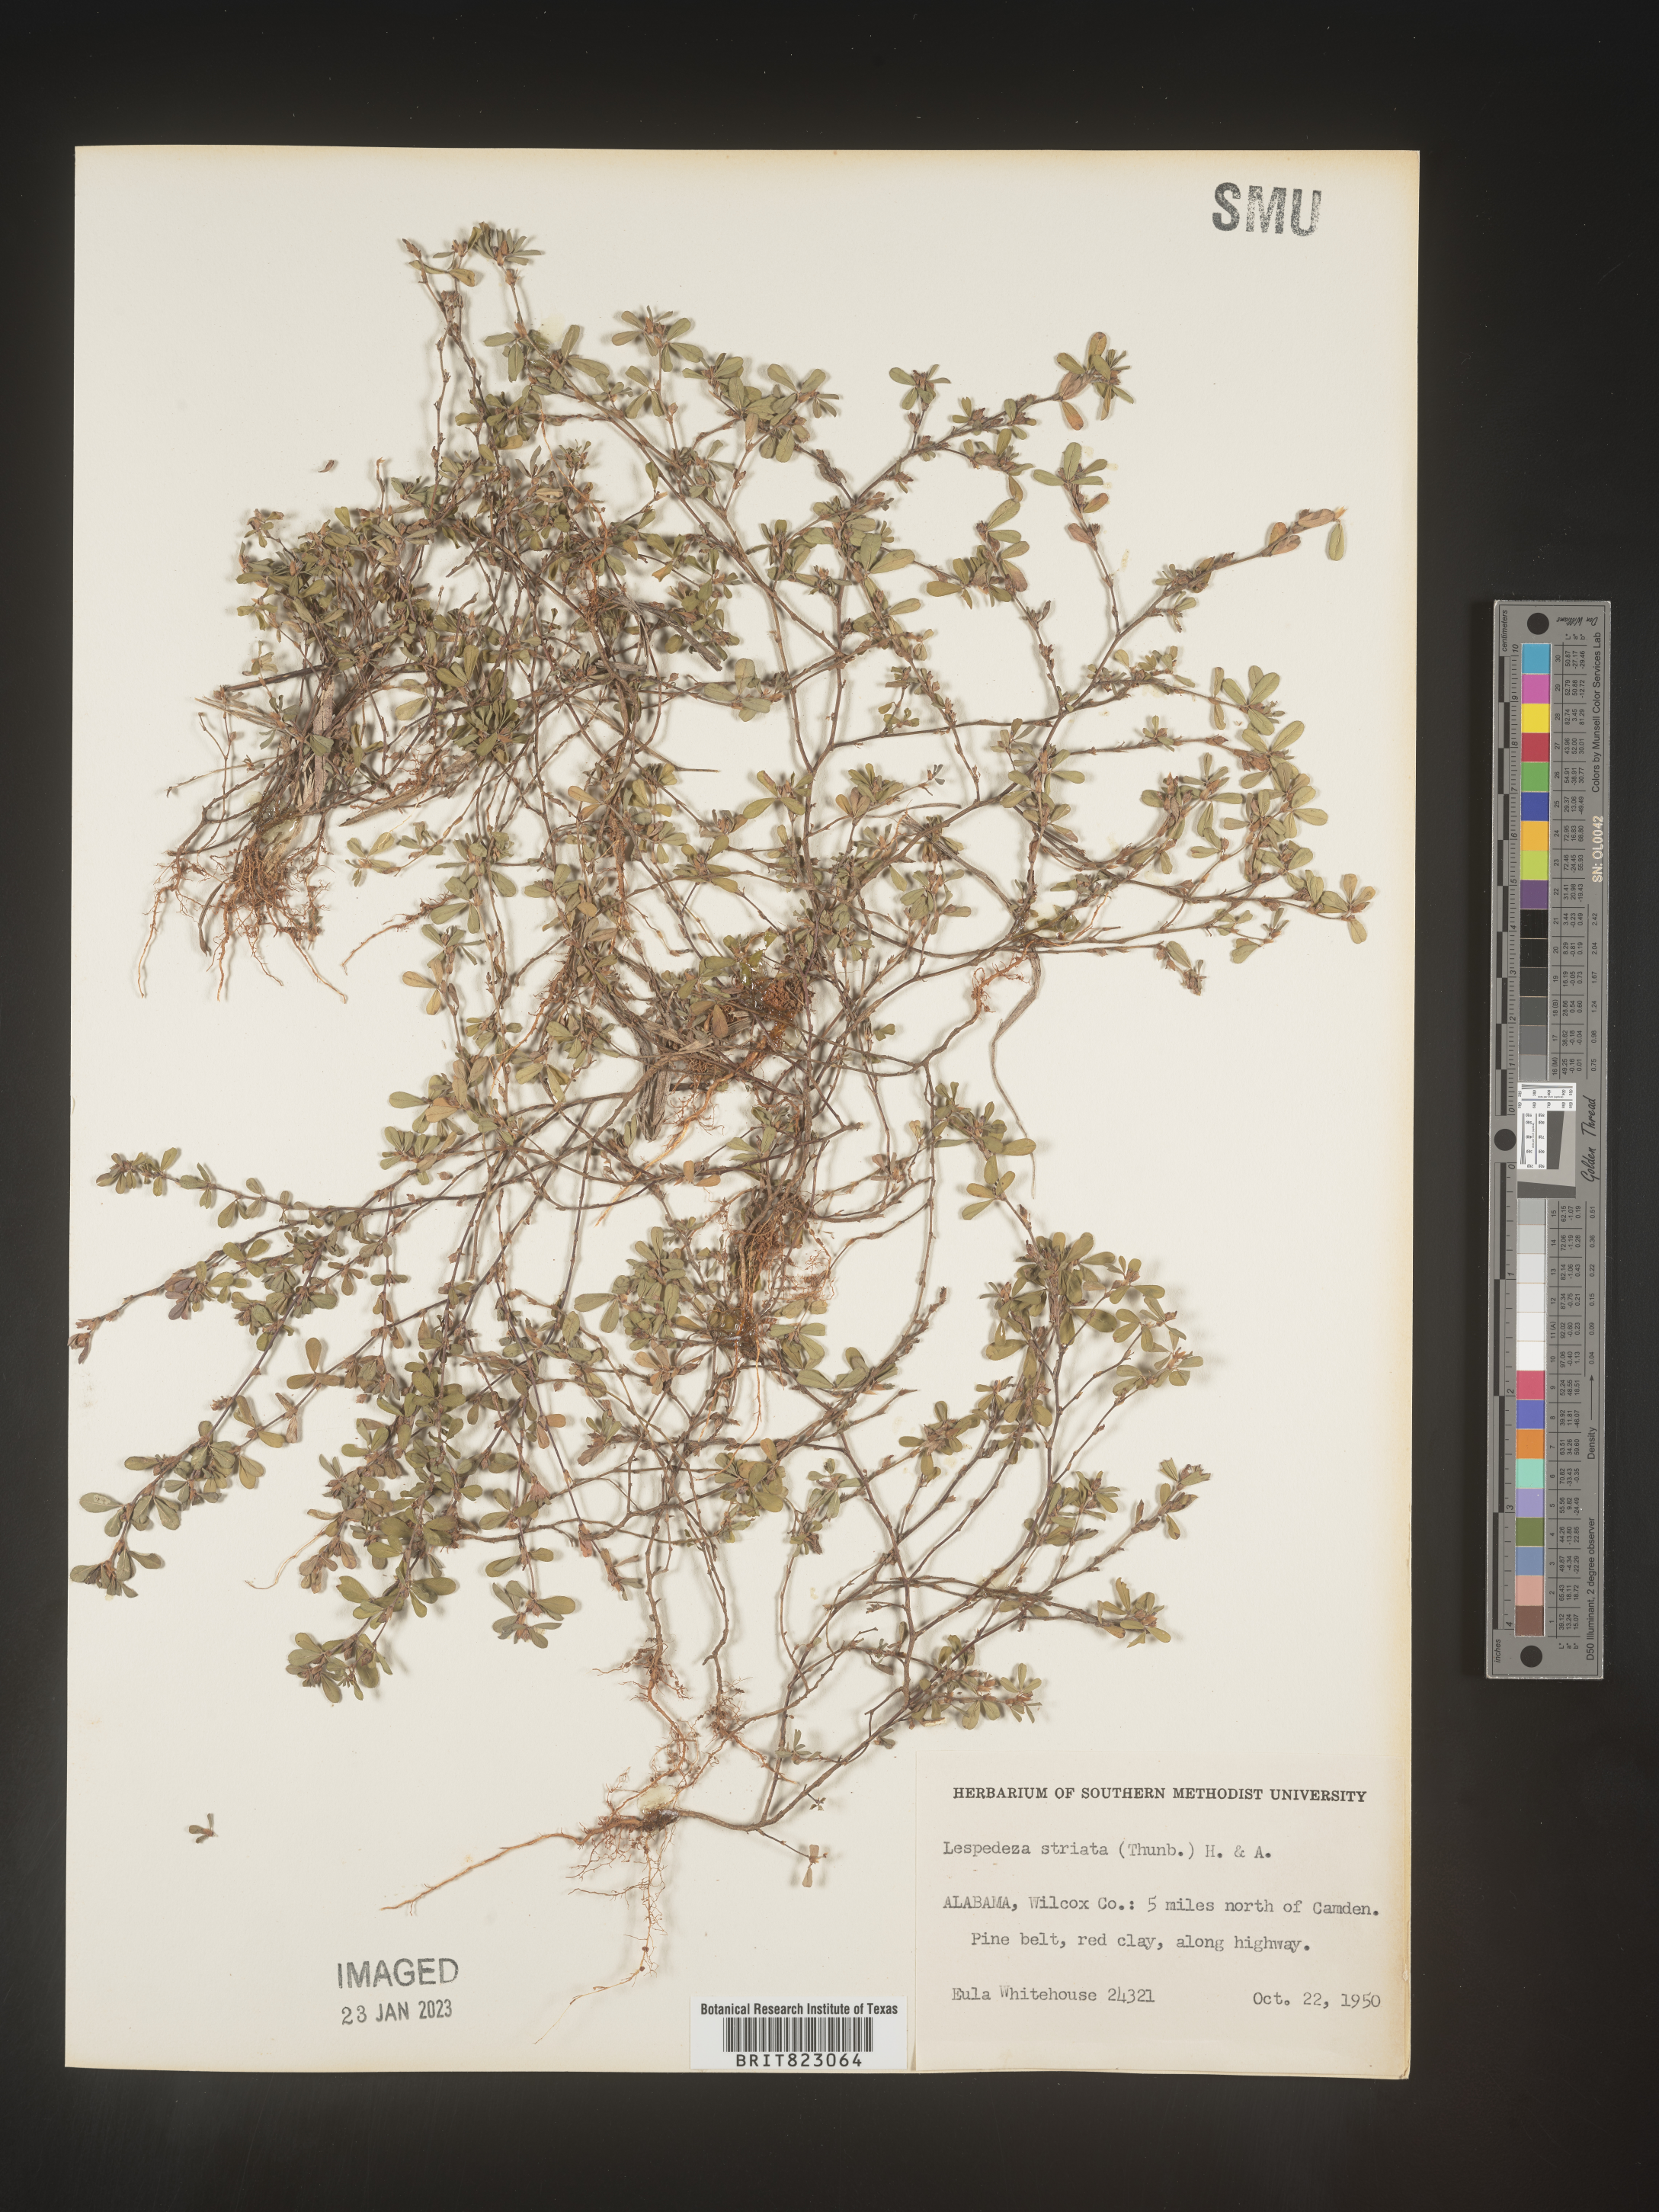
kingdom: Plantae
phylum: Tracheophyta
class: Magnoliopsida
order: Fabales
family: Fabaceae
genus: Kummerowia
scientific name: Kummerowia striata
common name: Japanese clover
